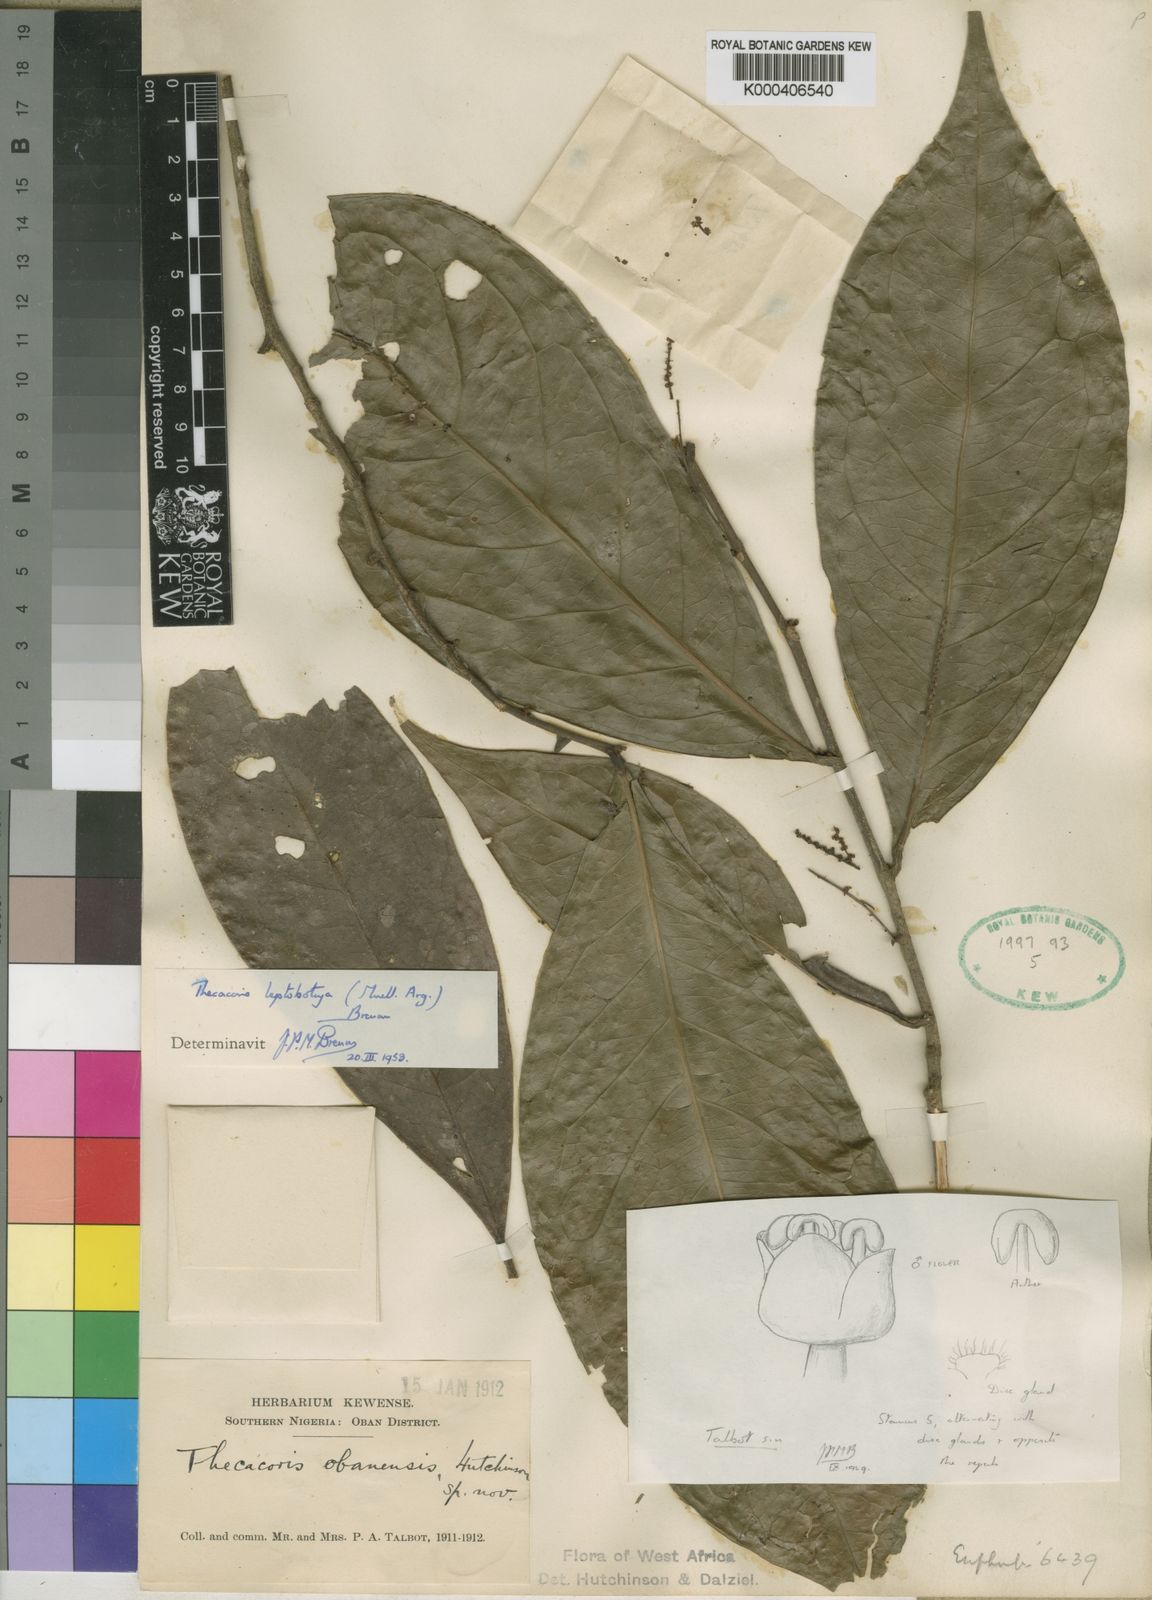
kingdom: Plantae
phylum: Tracheophyta
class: Magnoliopsida
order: Malpighiales
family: Phyllanthaceae
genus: Thecacoris
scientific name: Thecacoris
